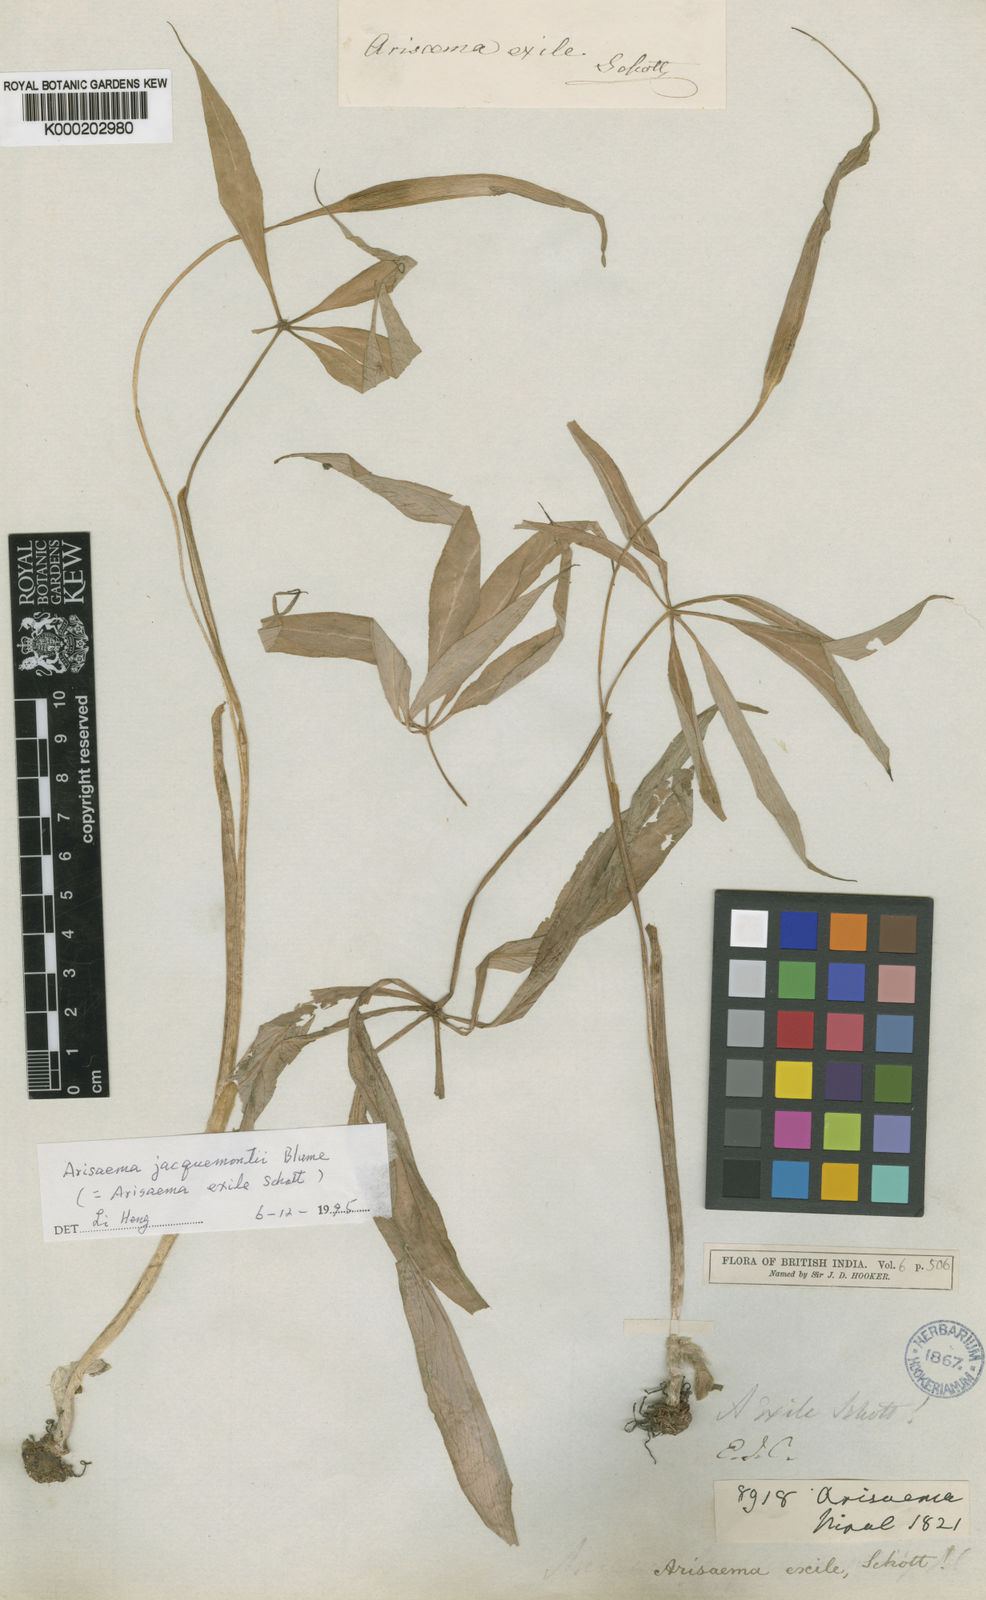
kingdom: Plantae
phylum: Tracheophyta
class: Liliopsida
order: Alismatales
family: Araceae
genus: Arisaema
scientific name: Arisaema jacquemontii
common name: Jacquemont's cobra-lily
